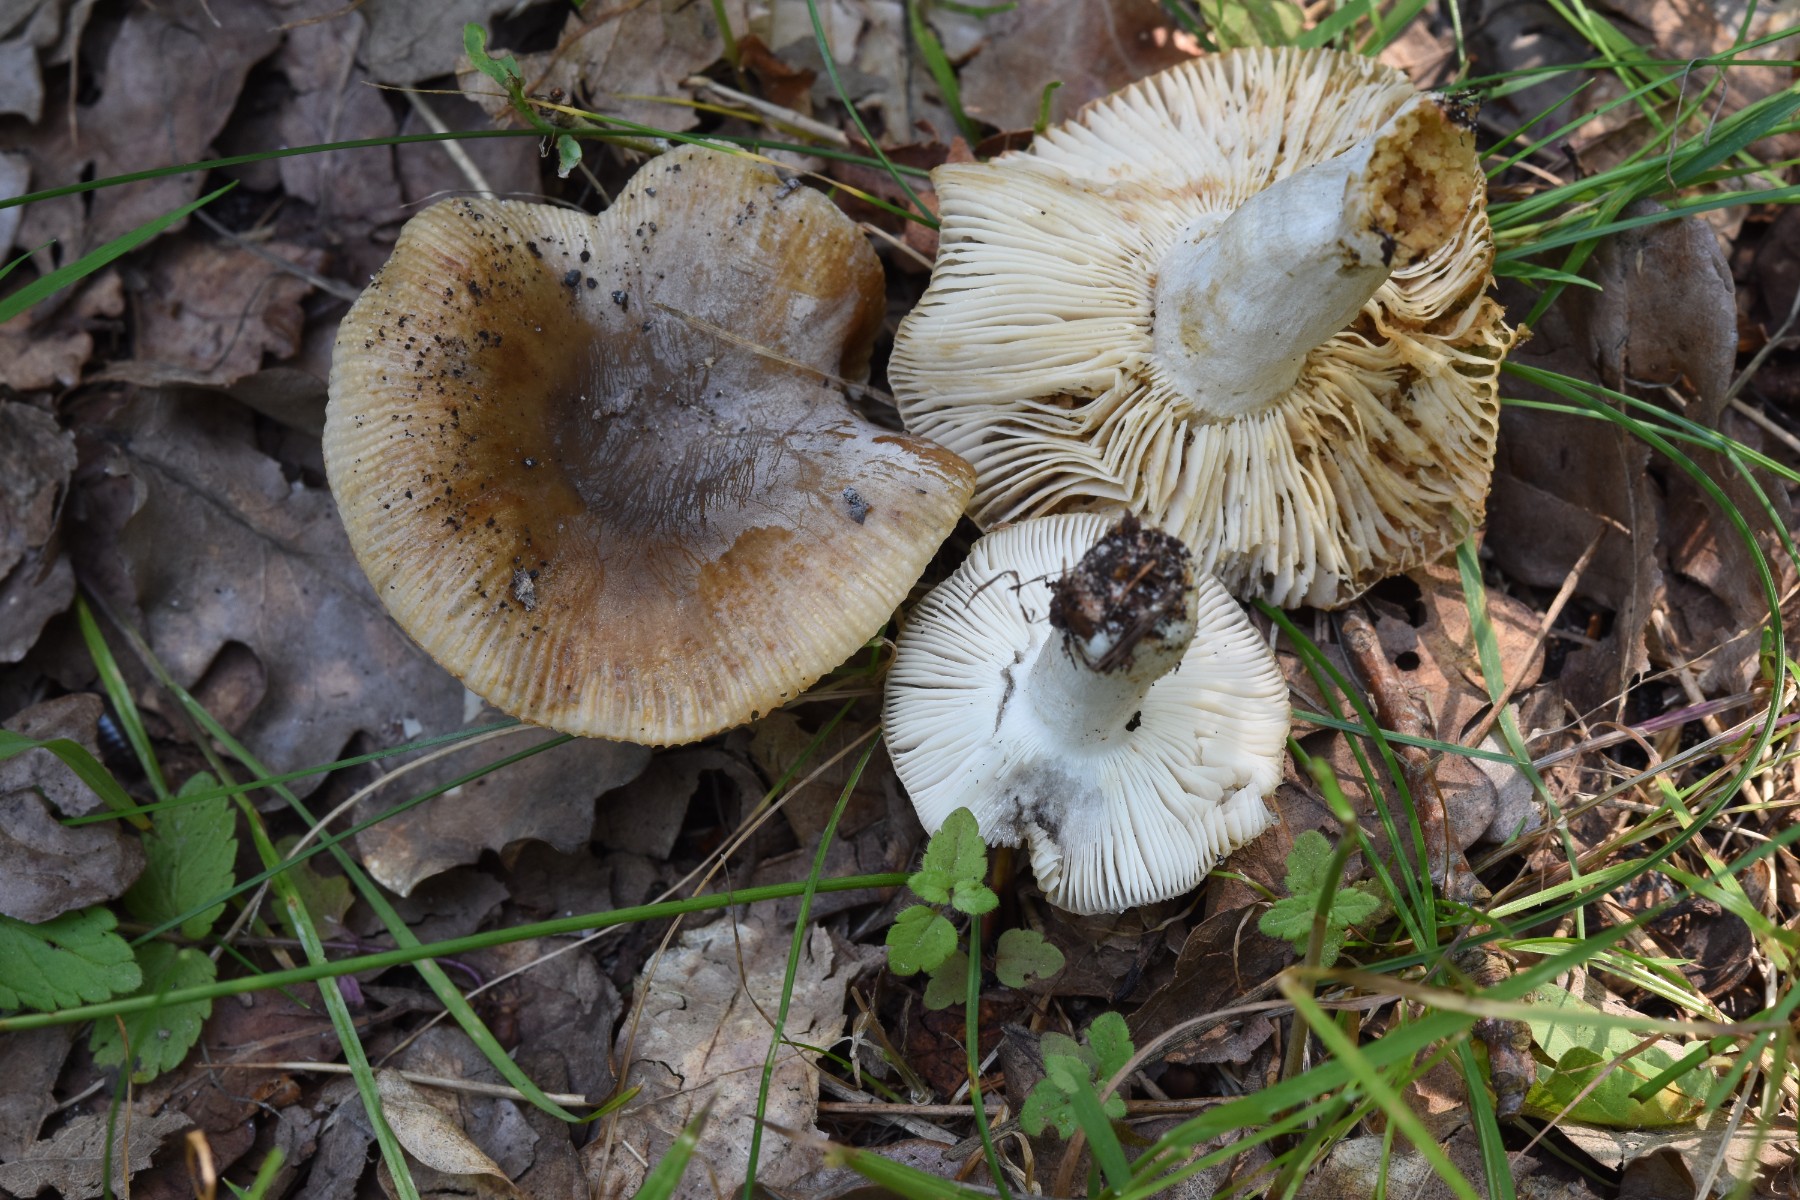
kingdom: Fungi
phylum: Basidiomycota
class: Agaricomycetes
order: Russulales
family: Russulaceae
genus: Russula
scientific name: Russula recondita
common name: mild kam-skørhat
